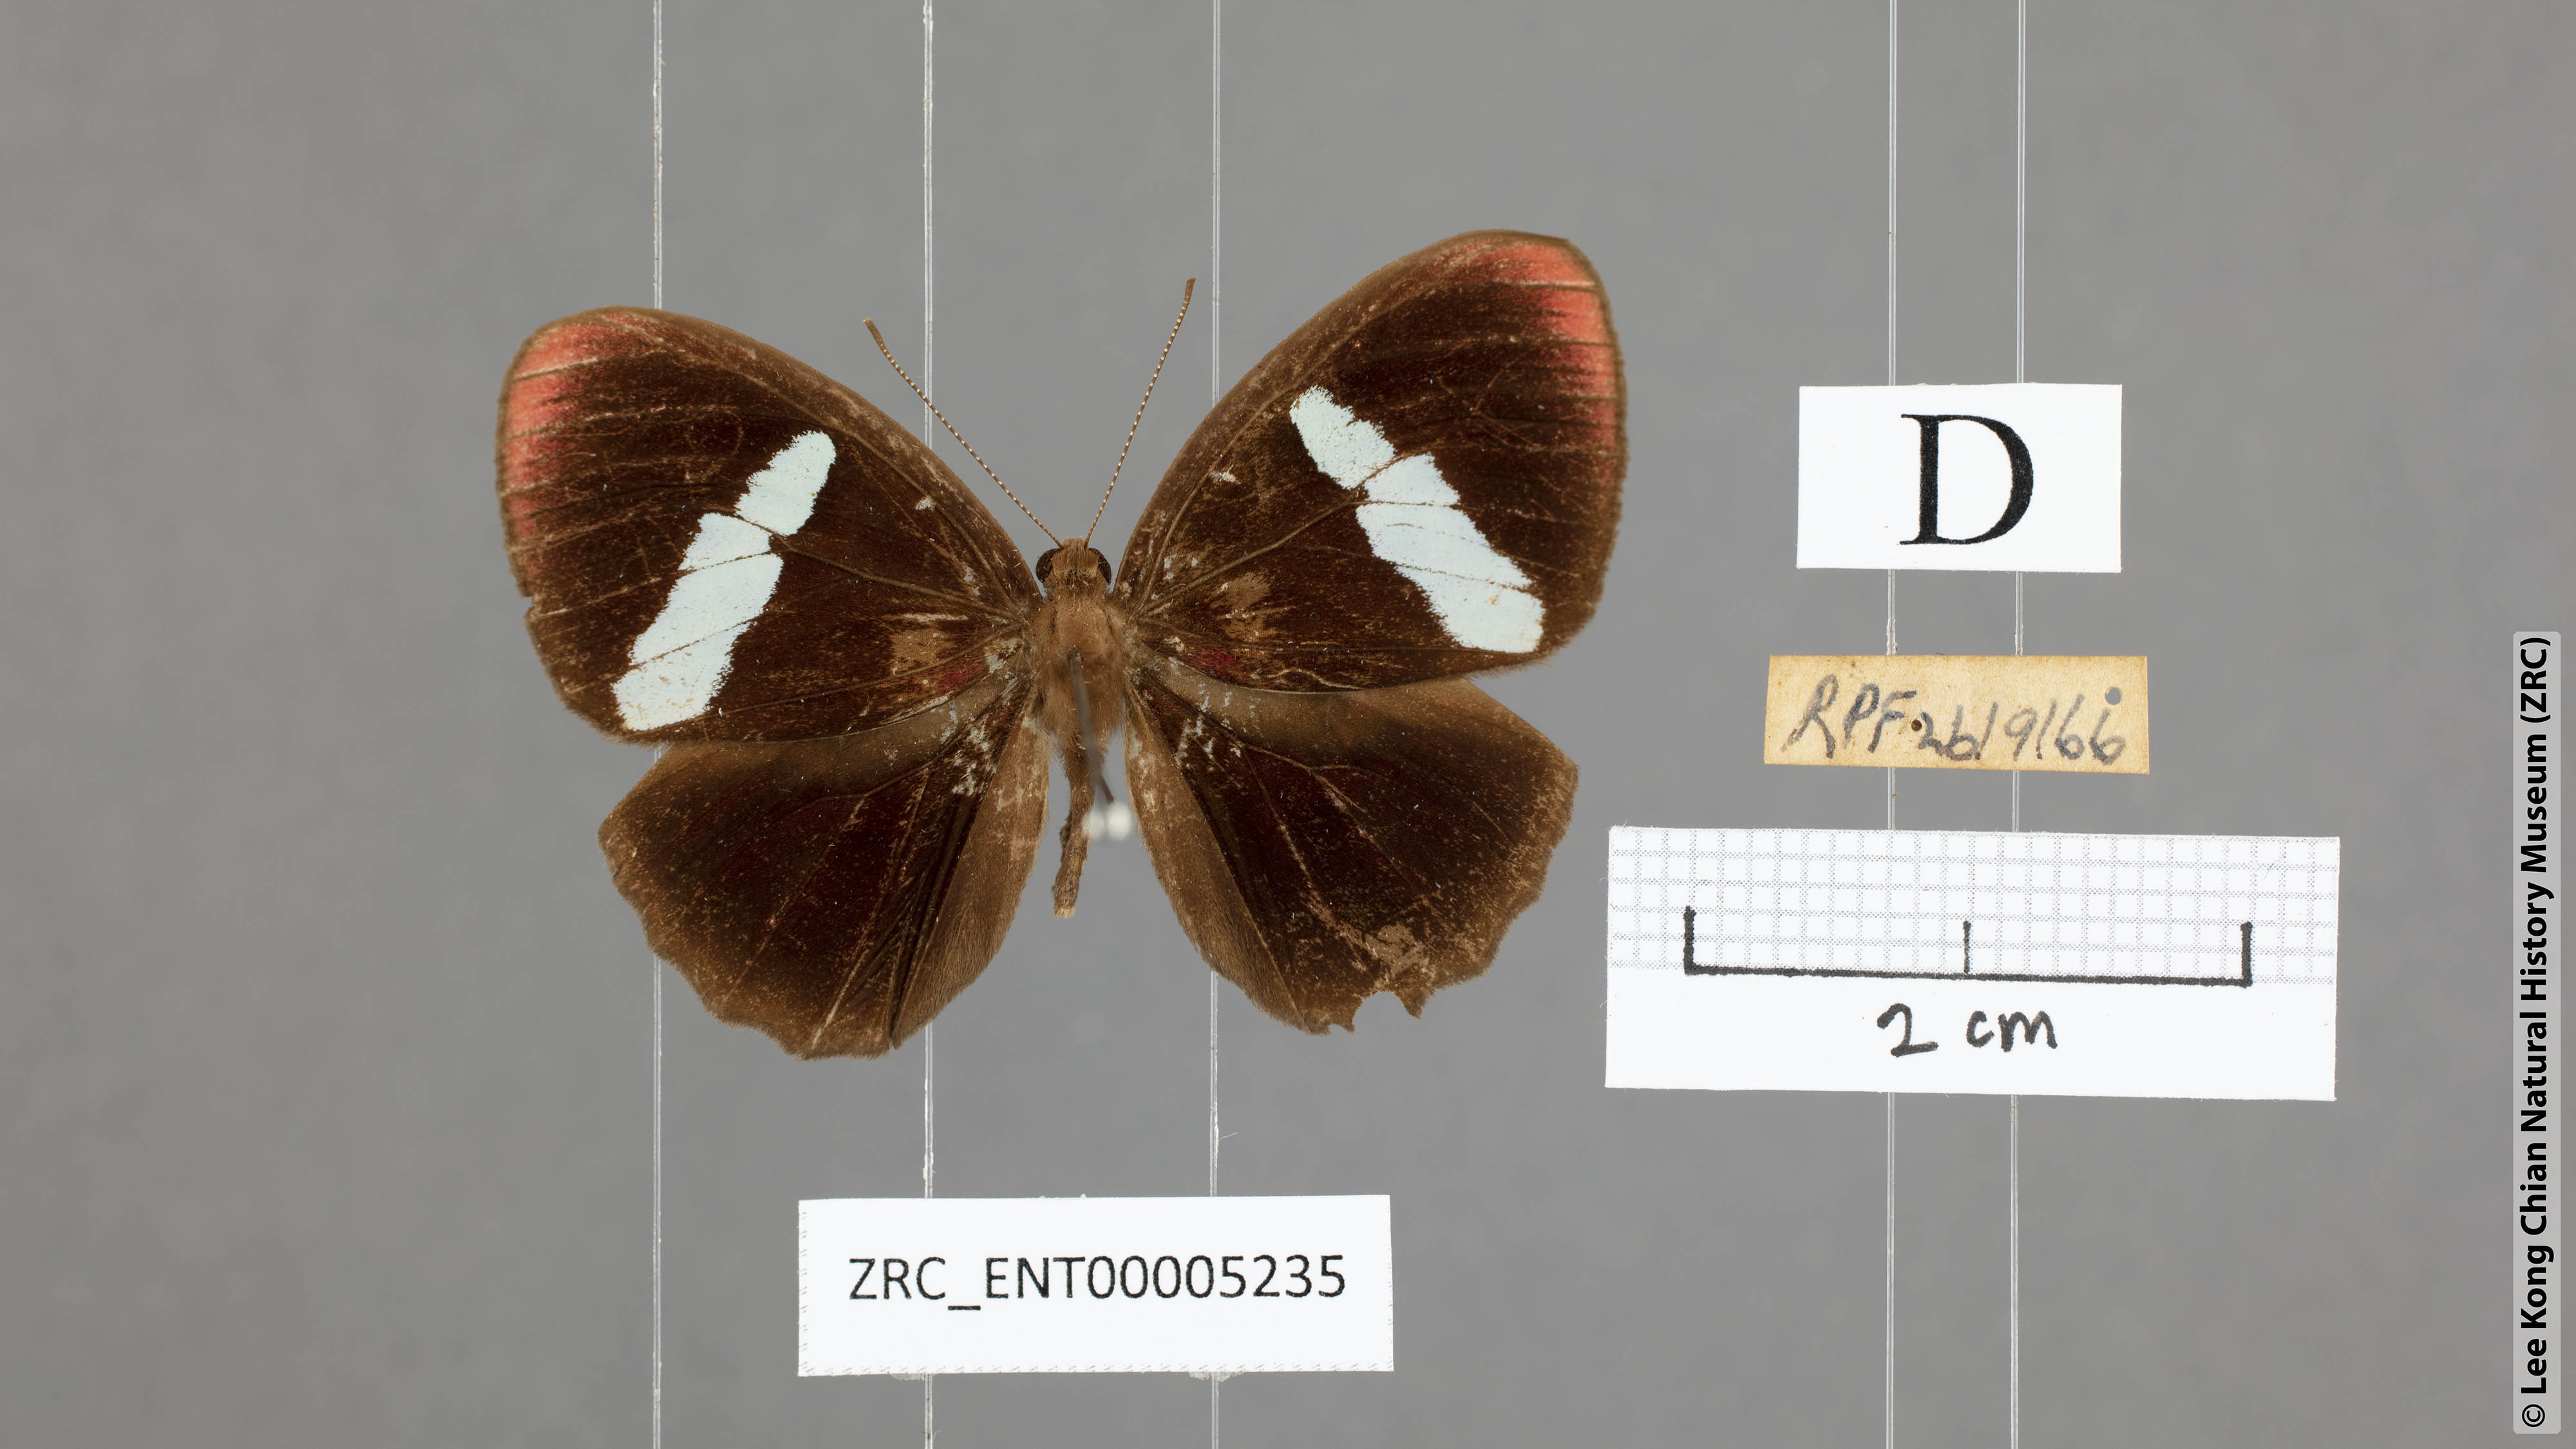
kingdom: Animalia
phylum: Arthropoda
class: Insecta
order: Lepidoptera
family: Riodinidae
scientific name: Riodinidae
